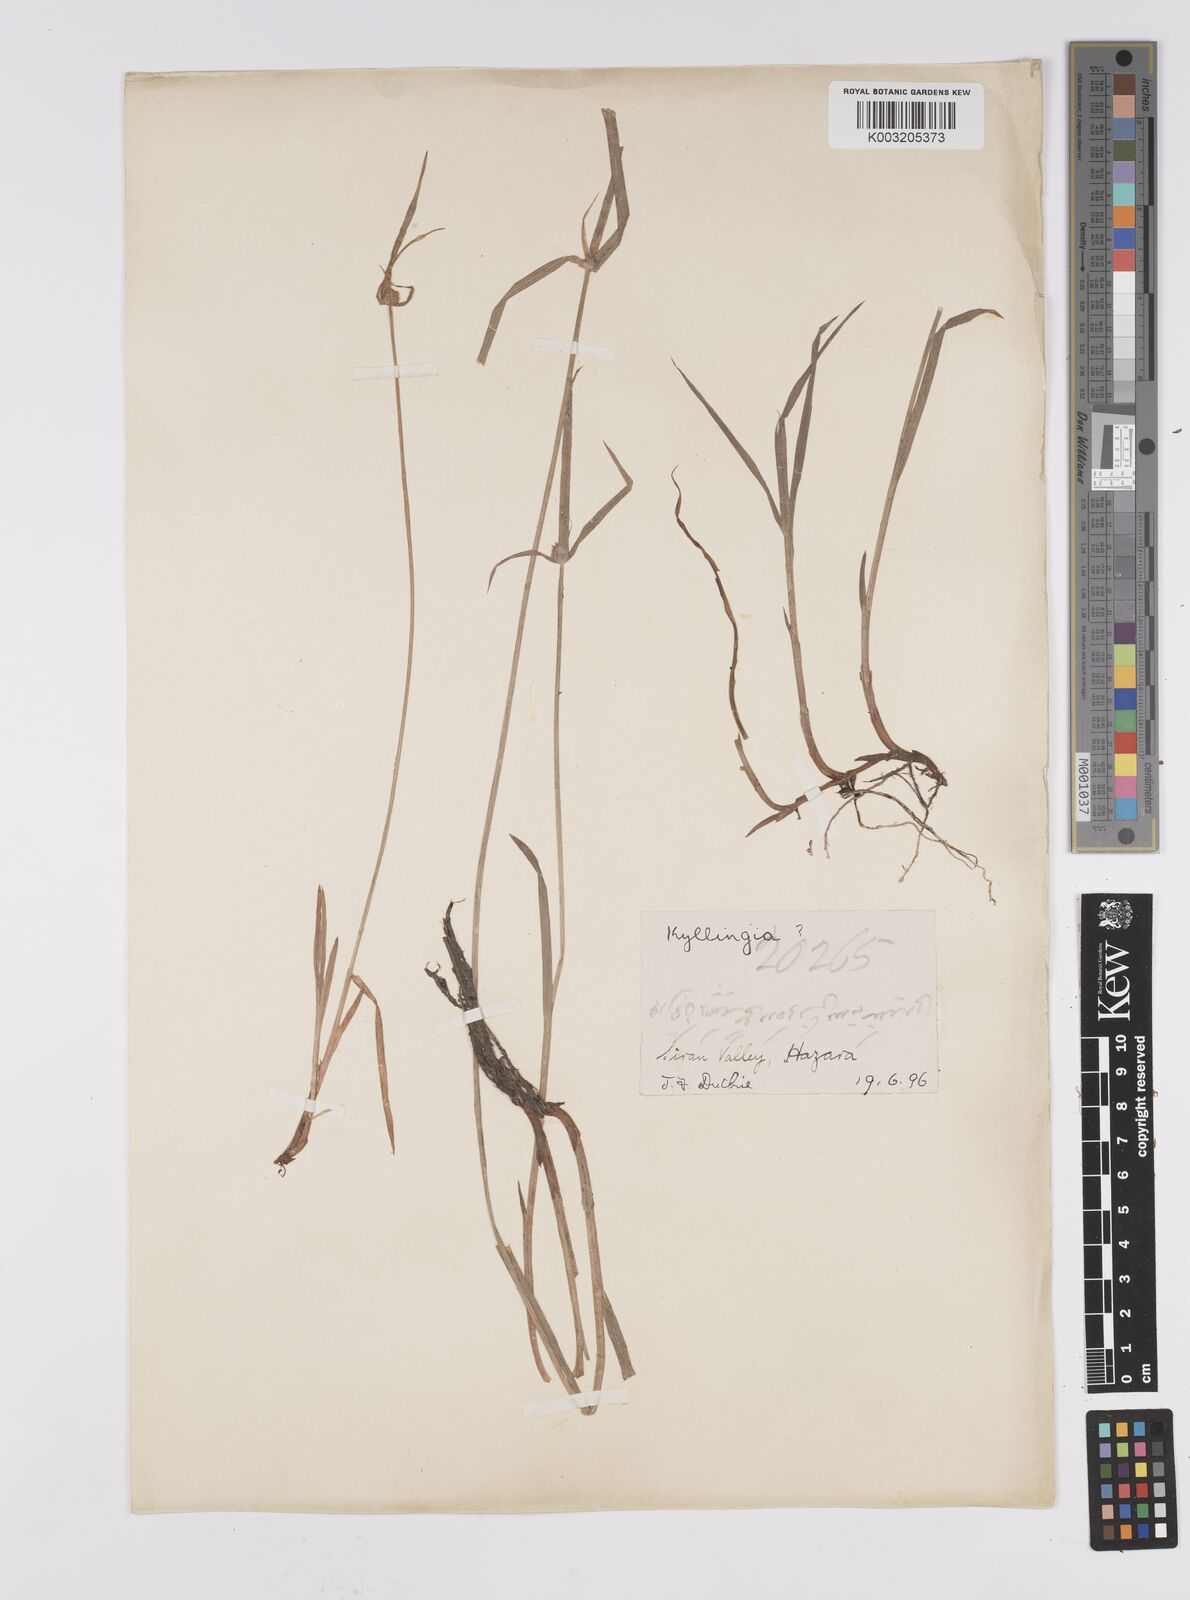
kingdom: Plantae
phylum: Tracheophyta
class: Liliopsida
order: Poales
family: Cyperaceae
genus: Cyperus
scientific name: Cyperus brevifolius
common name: Globe kyllinga
